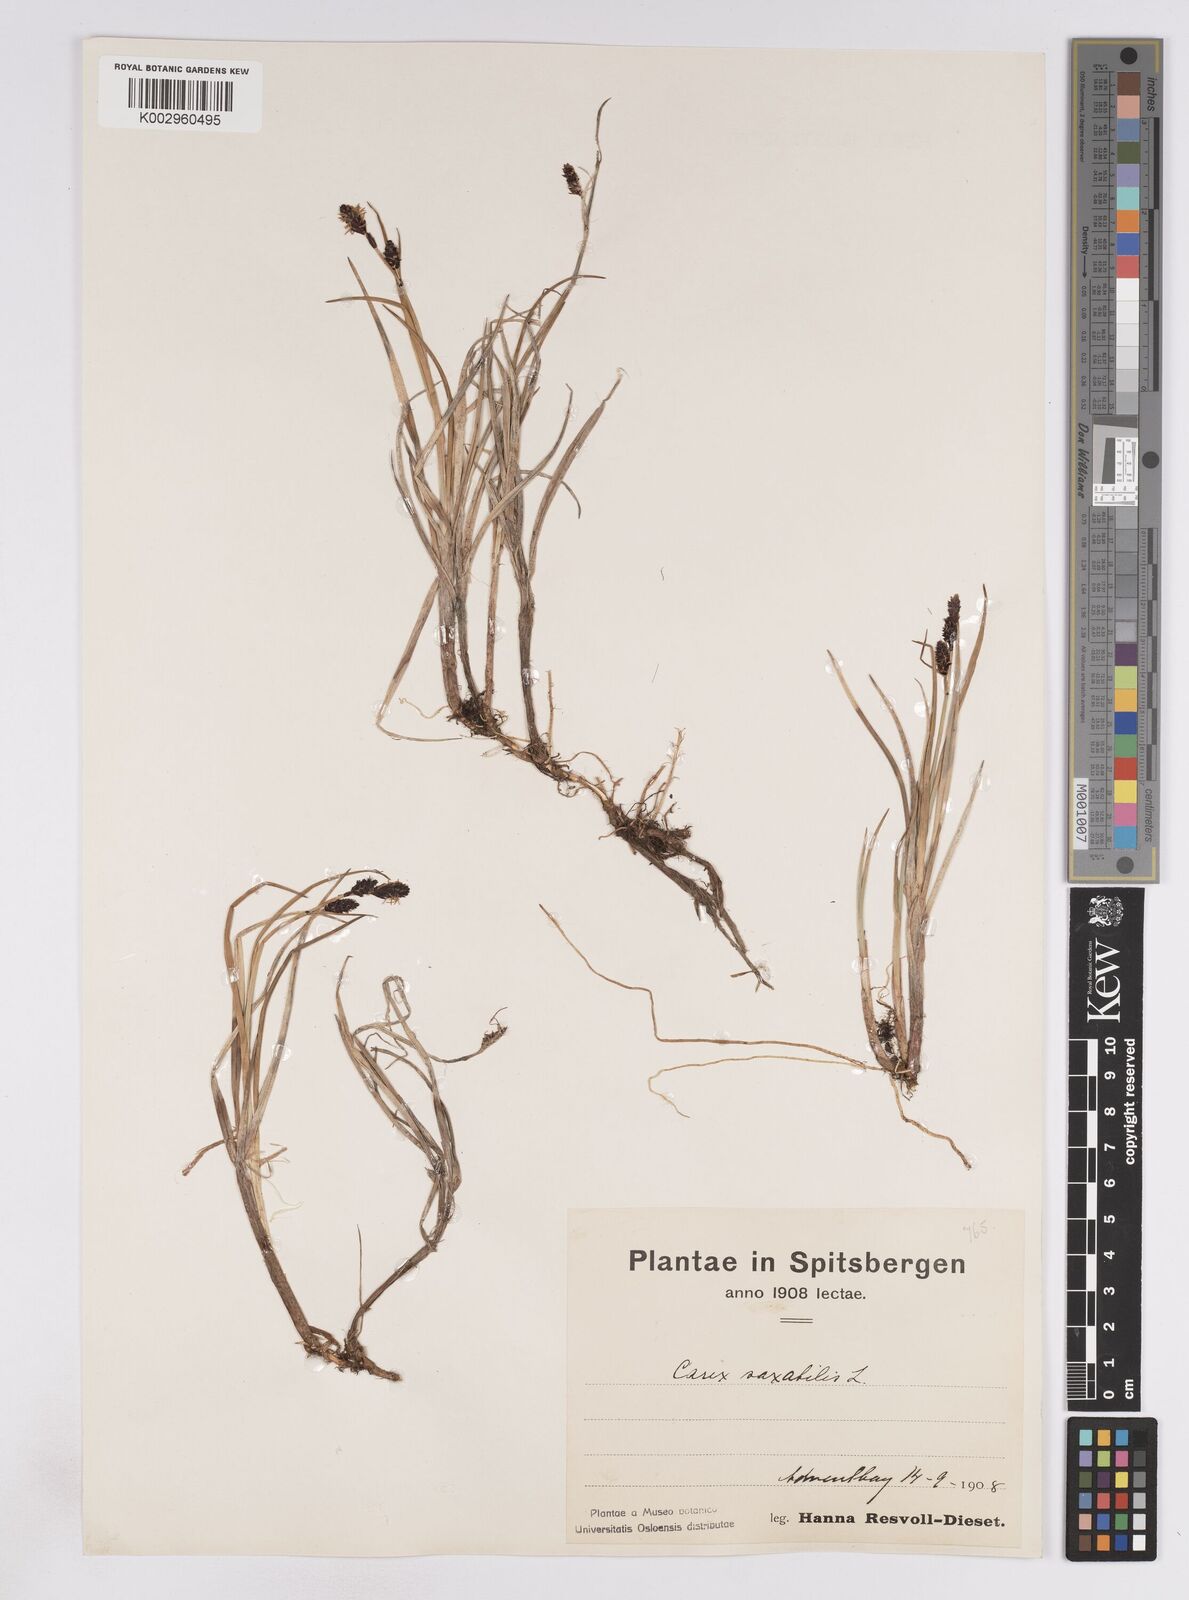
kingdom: Plantae
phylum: Tracheophyta
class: Liliopsida
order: Poales
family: Cyperaceae
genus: Carex
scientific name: Carex saxatilis
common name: Russet sedge
